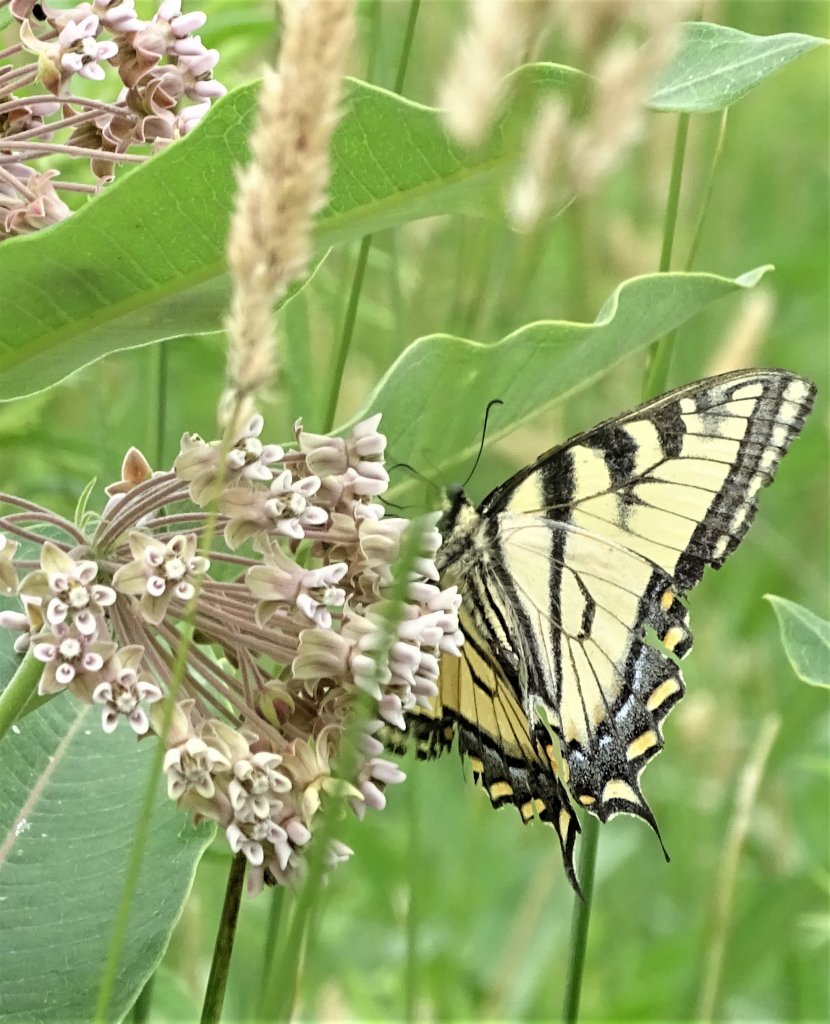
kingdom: Animalia
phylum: Arthropoda
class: Insecta
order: Lepidoptera
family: Papilionidae
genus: Pterourus
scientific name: Pterourus canadensis
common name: Canadian Tiger Swallowtail
